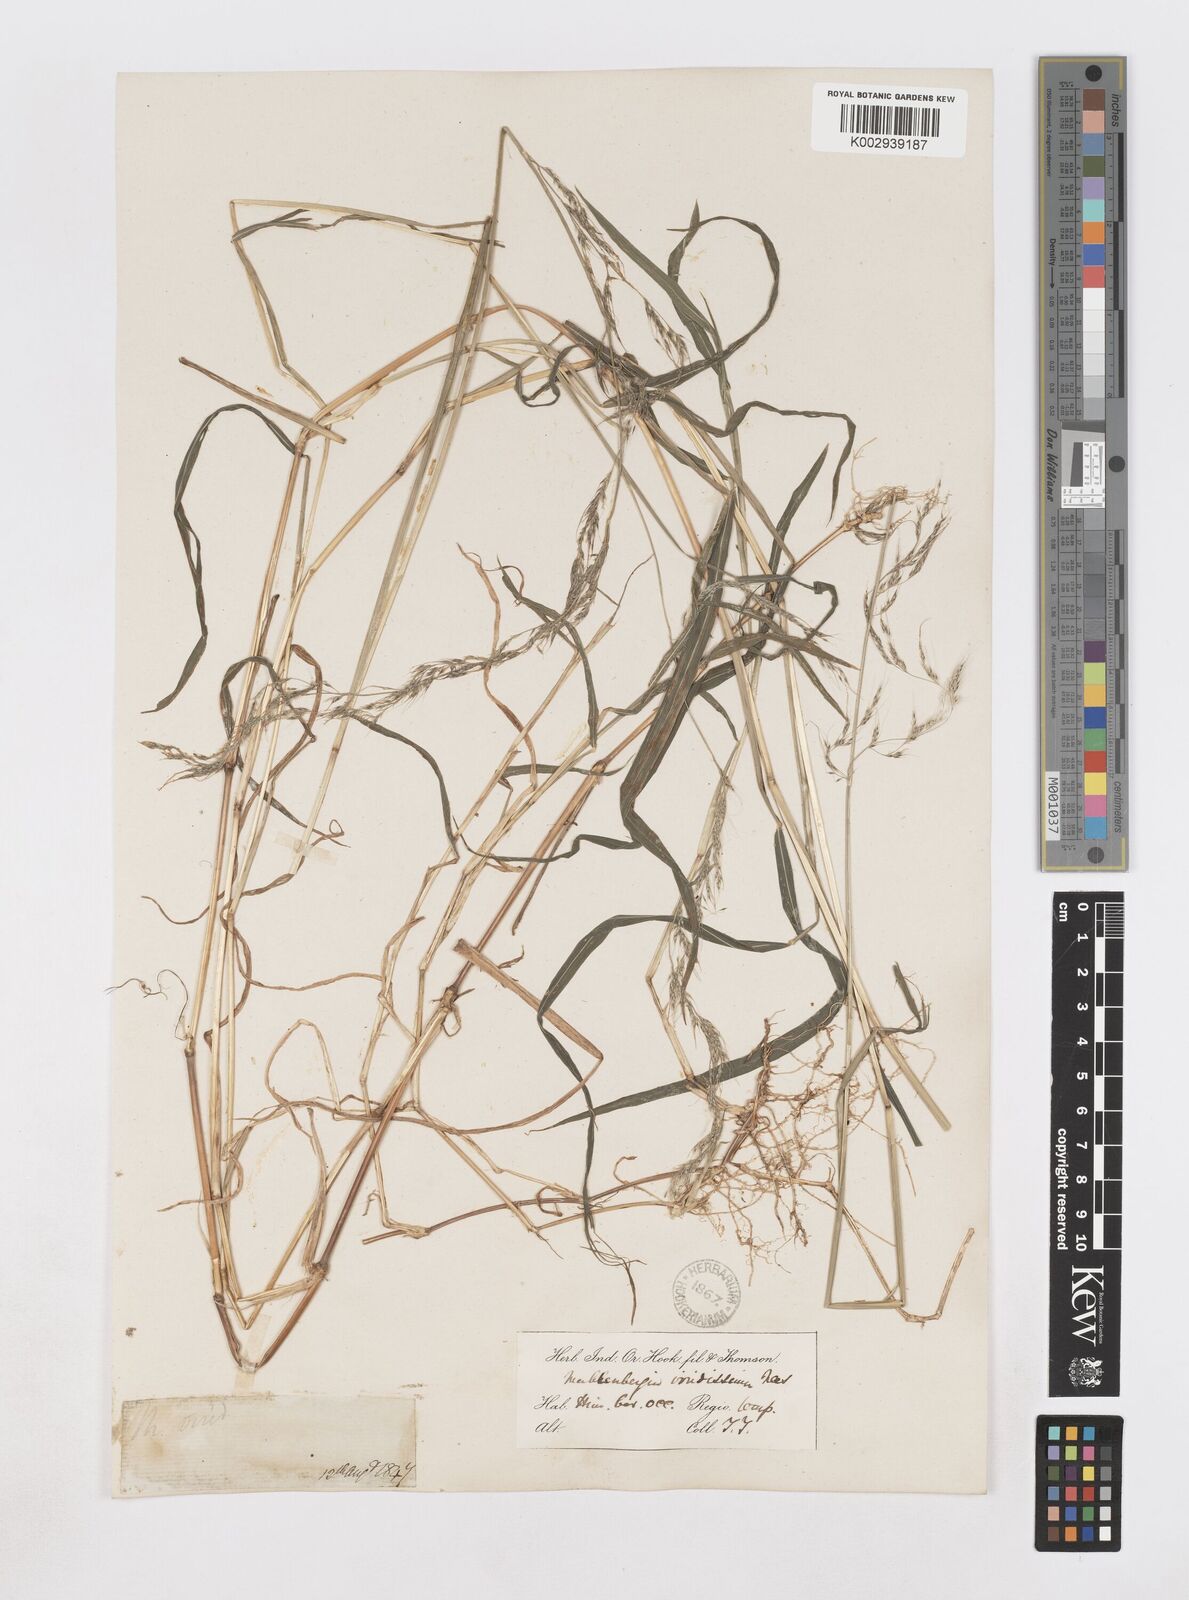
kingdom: Plantae
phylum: Tracheophyta
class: Liliopsida
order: Poales
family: Poaceae
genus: Muhlenbergia
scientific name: Muhlenbergia huegelii
